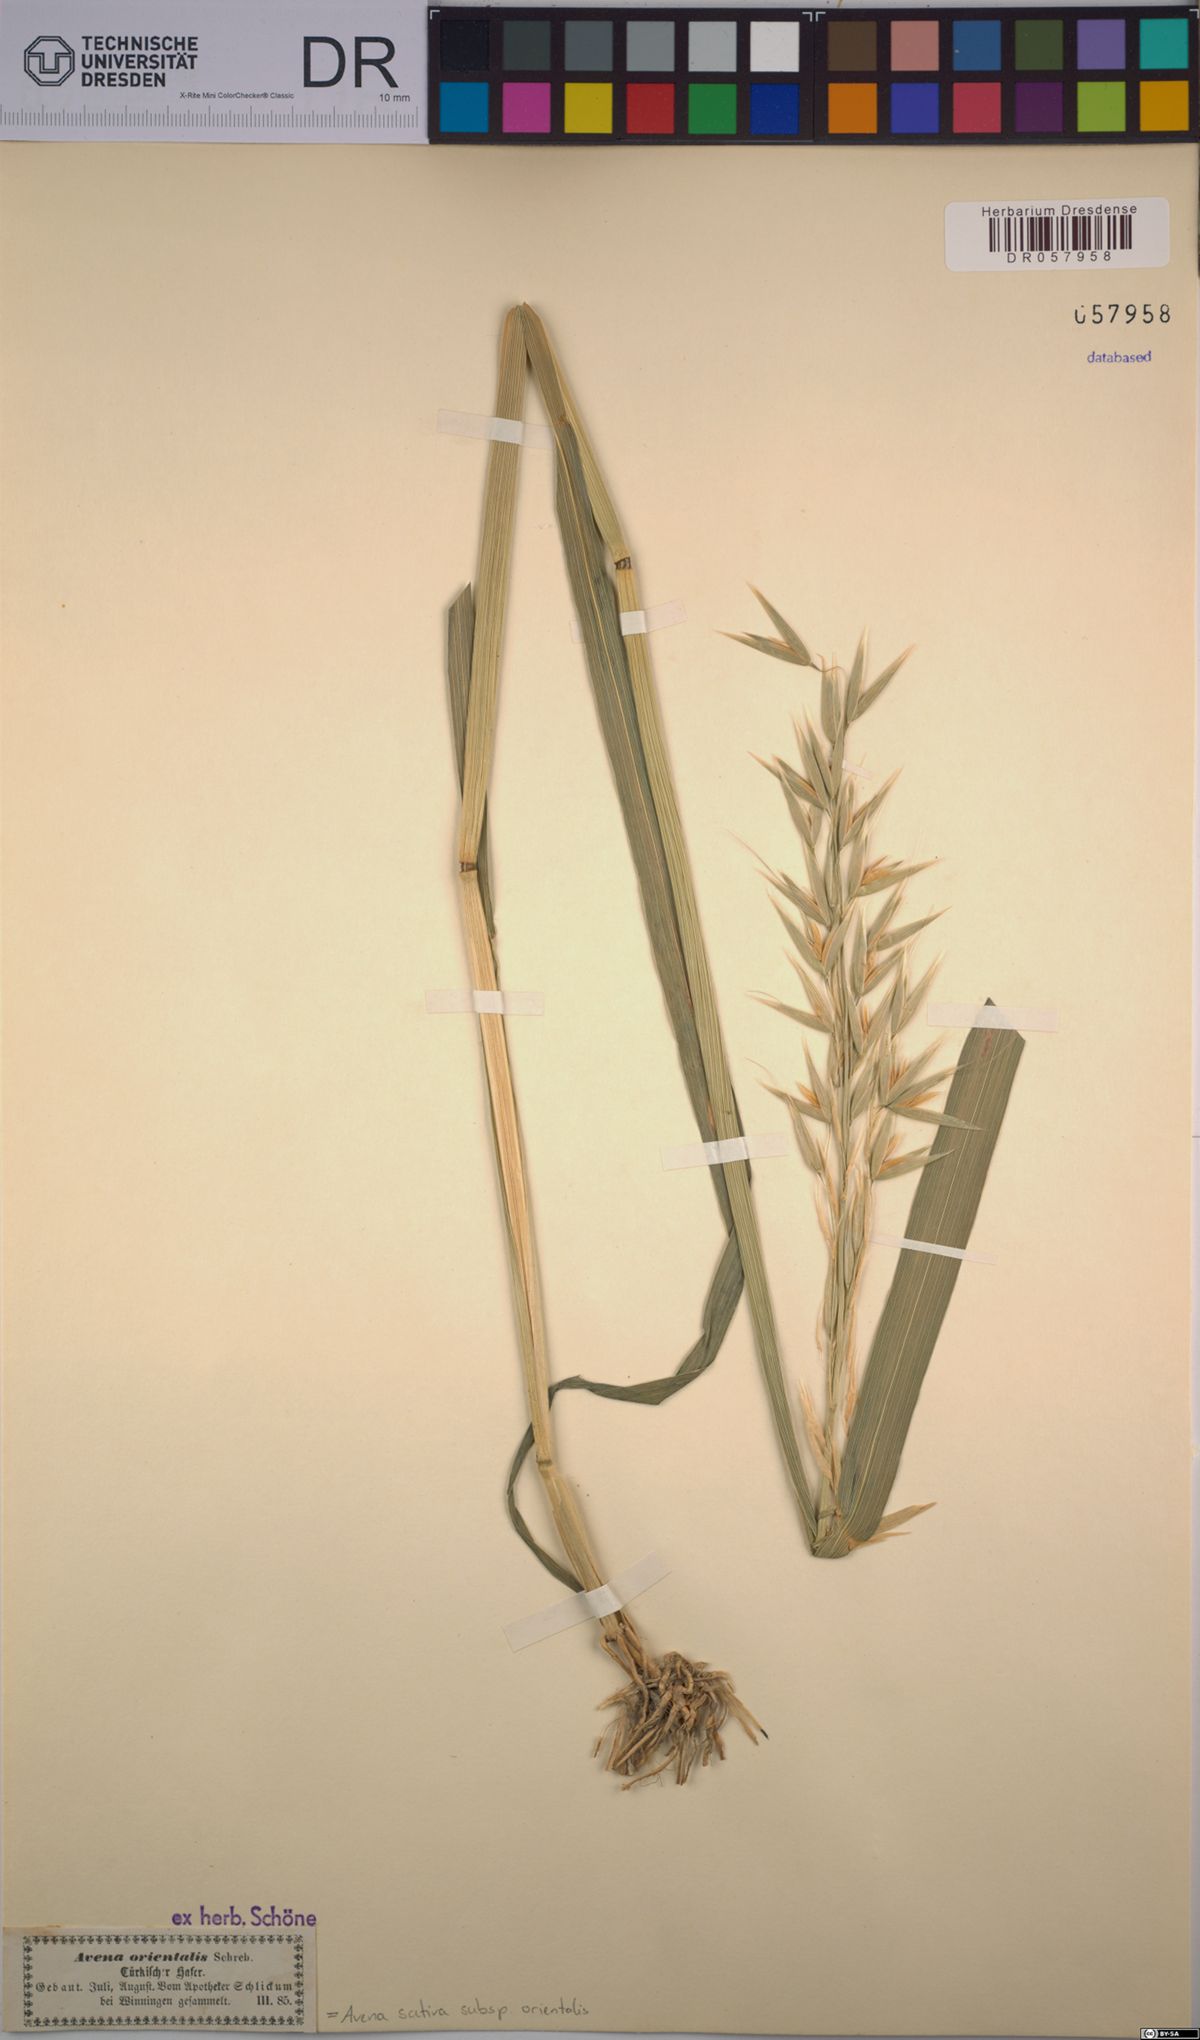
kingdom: Plantae
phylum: Tracheophyta
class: Liliopsida
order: Poales
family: Poaceae
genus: Avena
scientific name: Avena sativa
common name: Oat
